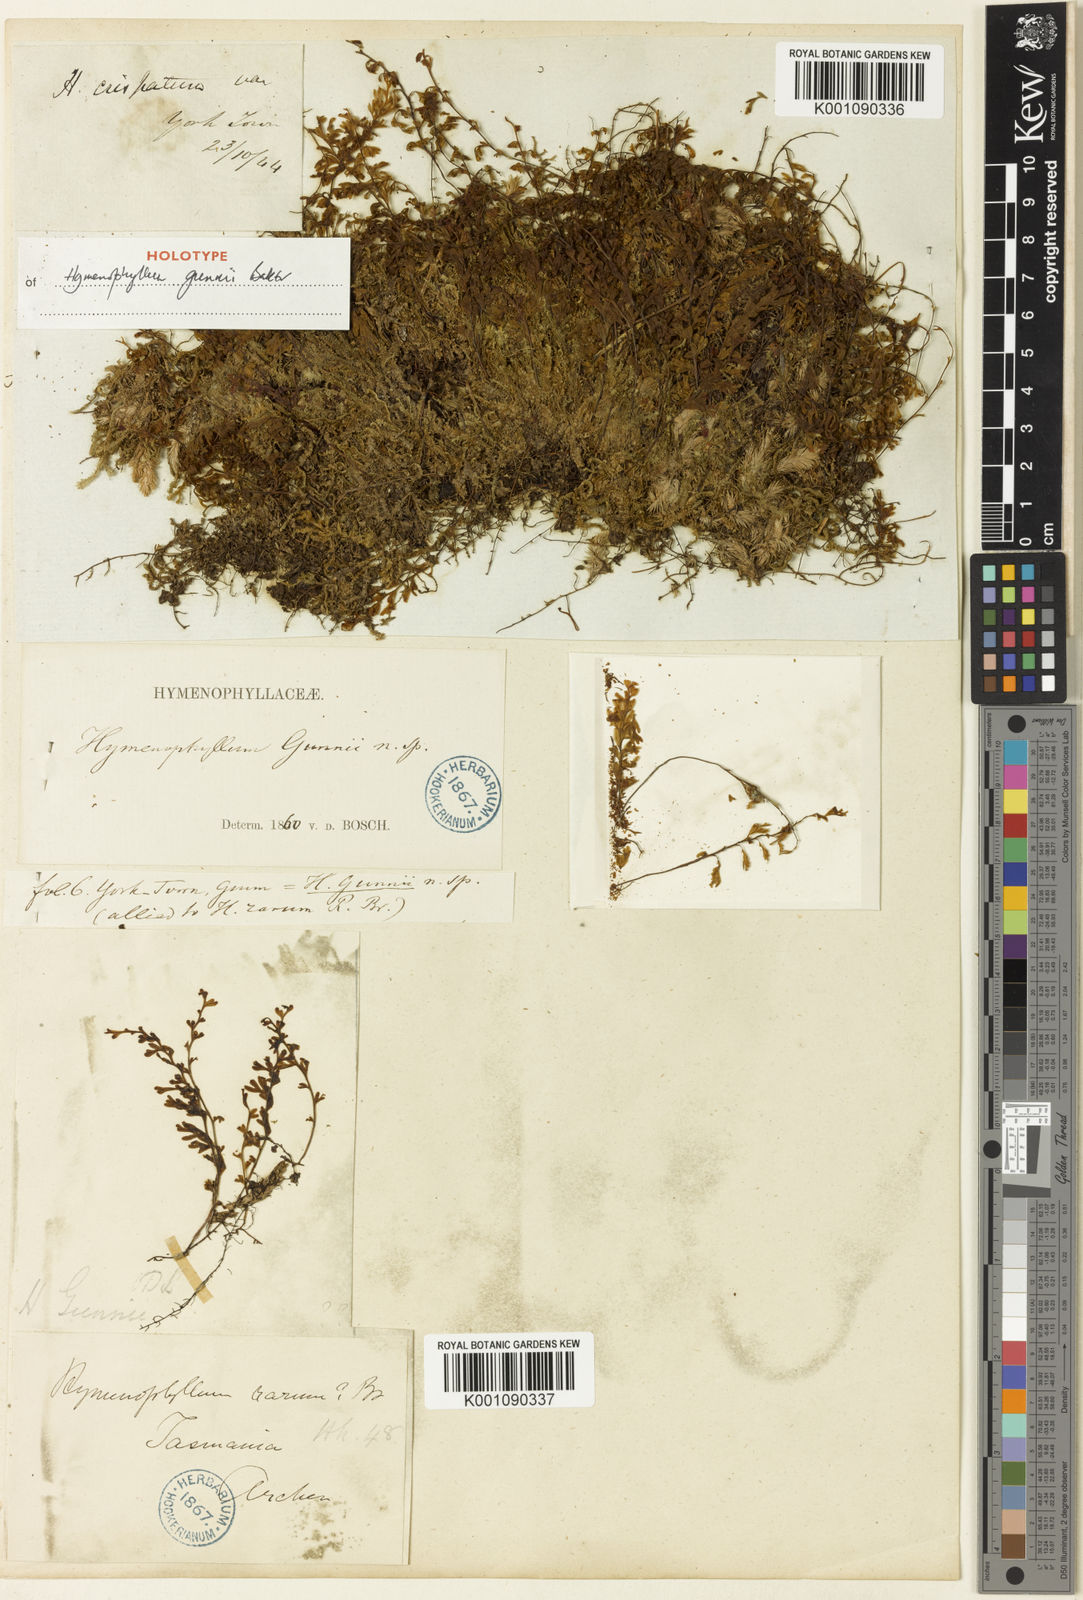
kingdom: Plantae
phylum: Tracheophyta
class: Polypodiopsida
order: Hymenophyllales
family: Hymenophyllaceae
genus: Hymenophyllum
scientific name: Hymenophyllum rarum
